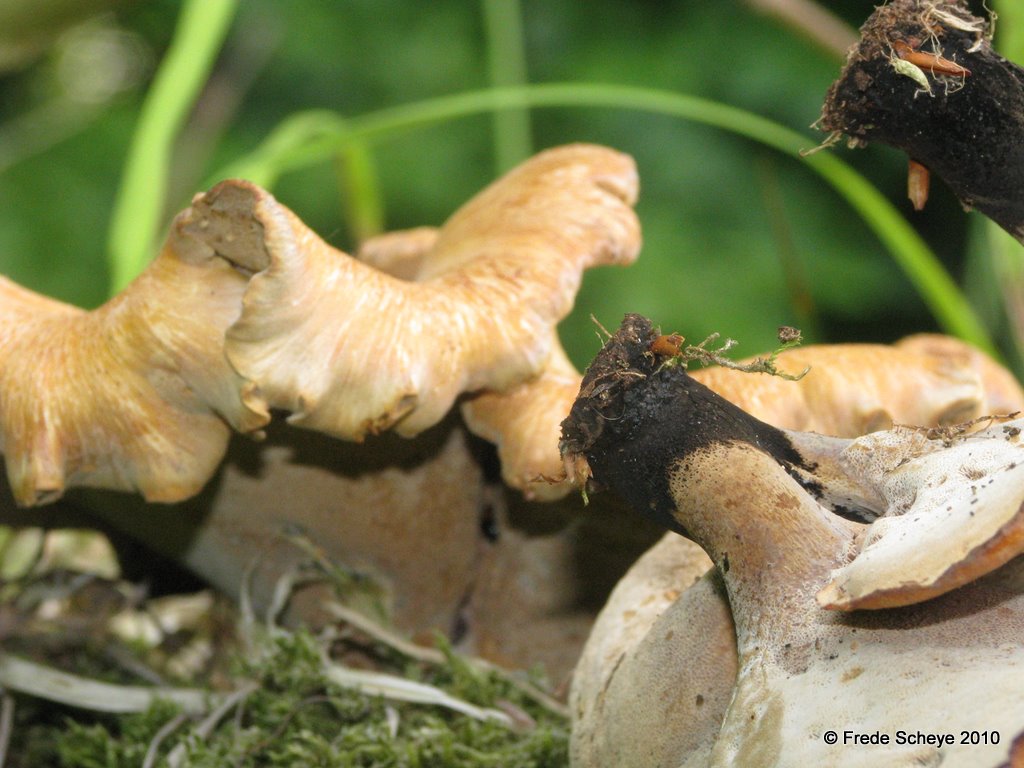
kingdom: Fungi
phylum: Basidiomycota
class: Agaricomycetes
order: Polyporales
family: Polyporaceae
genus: Cerioporus
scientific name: Cerioporus varius
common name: foranderlig stilkporesvamp
